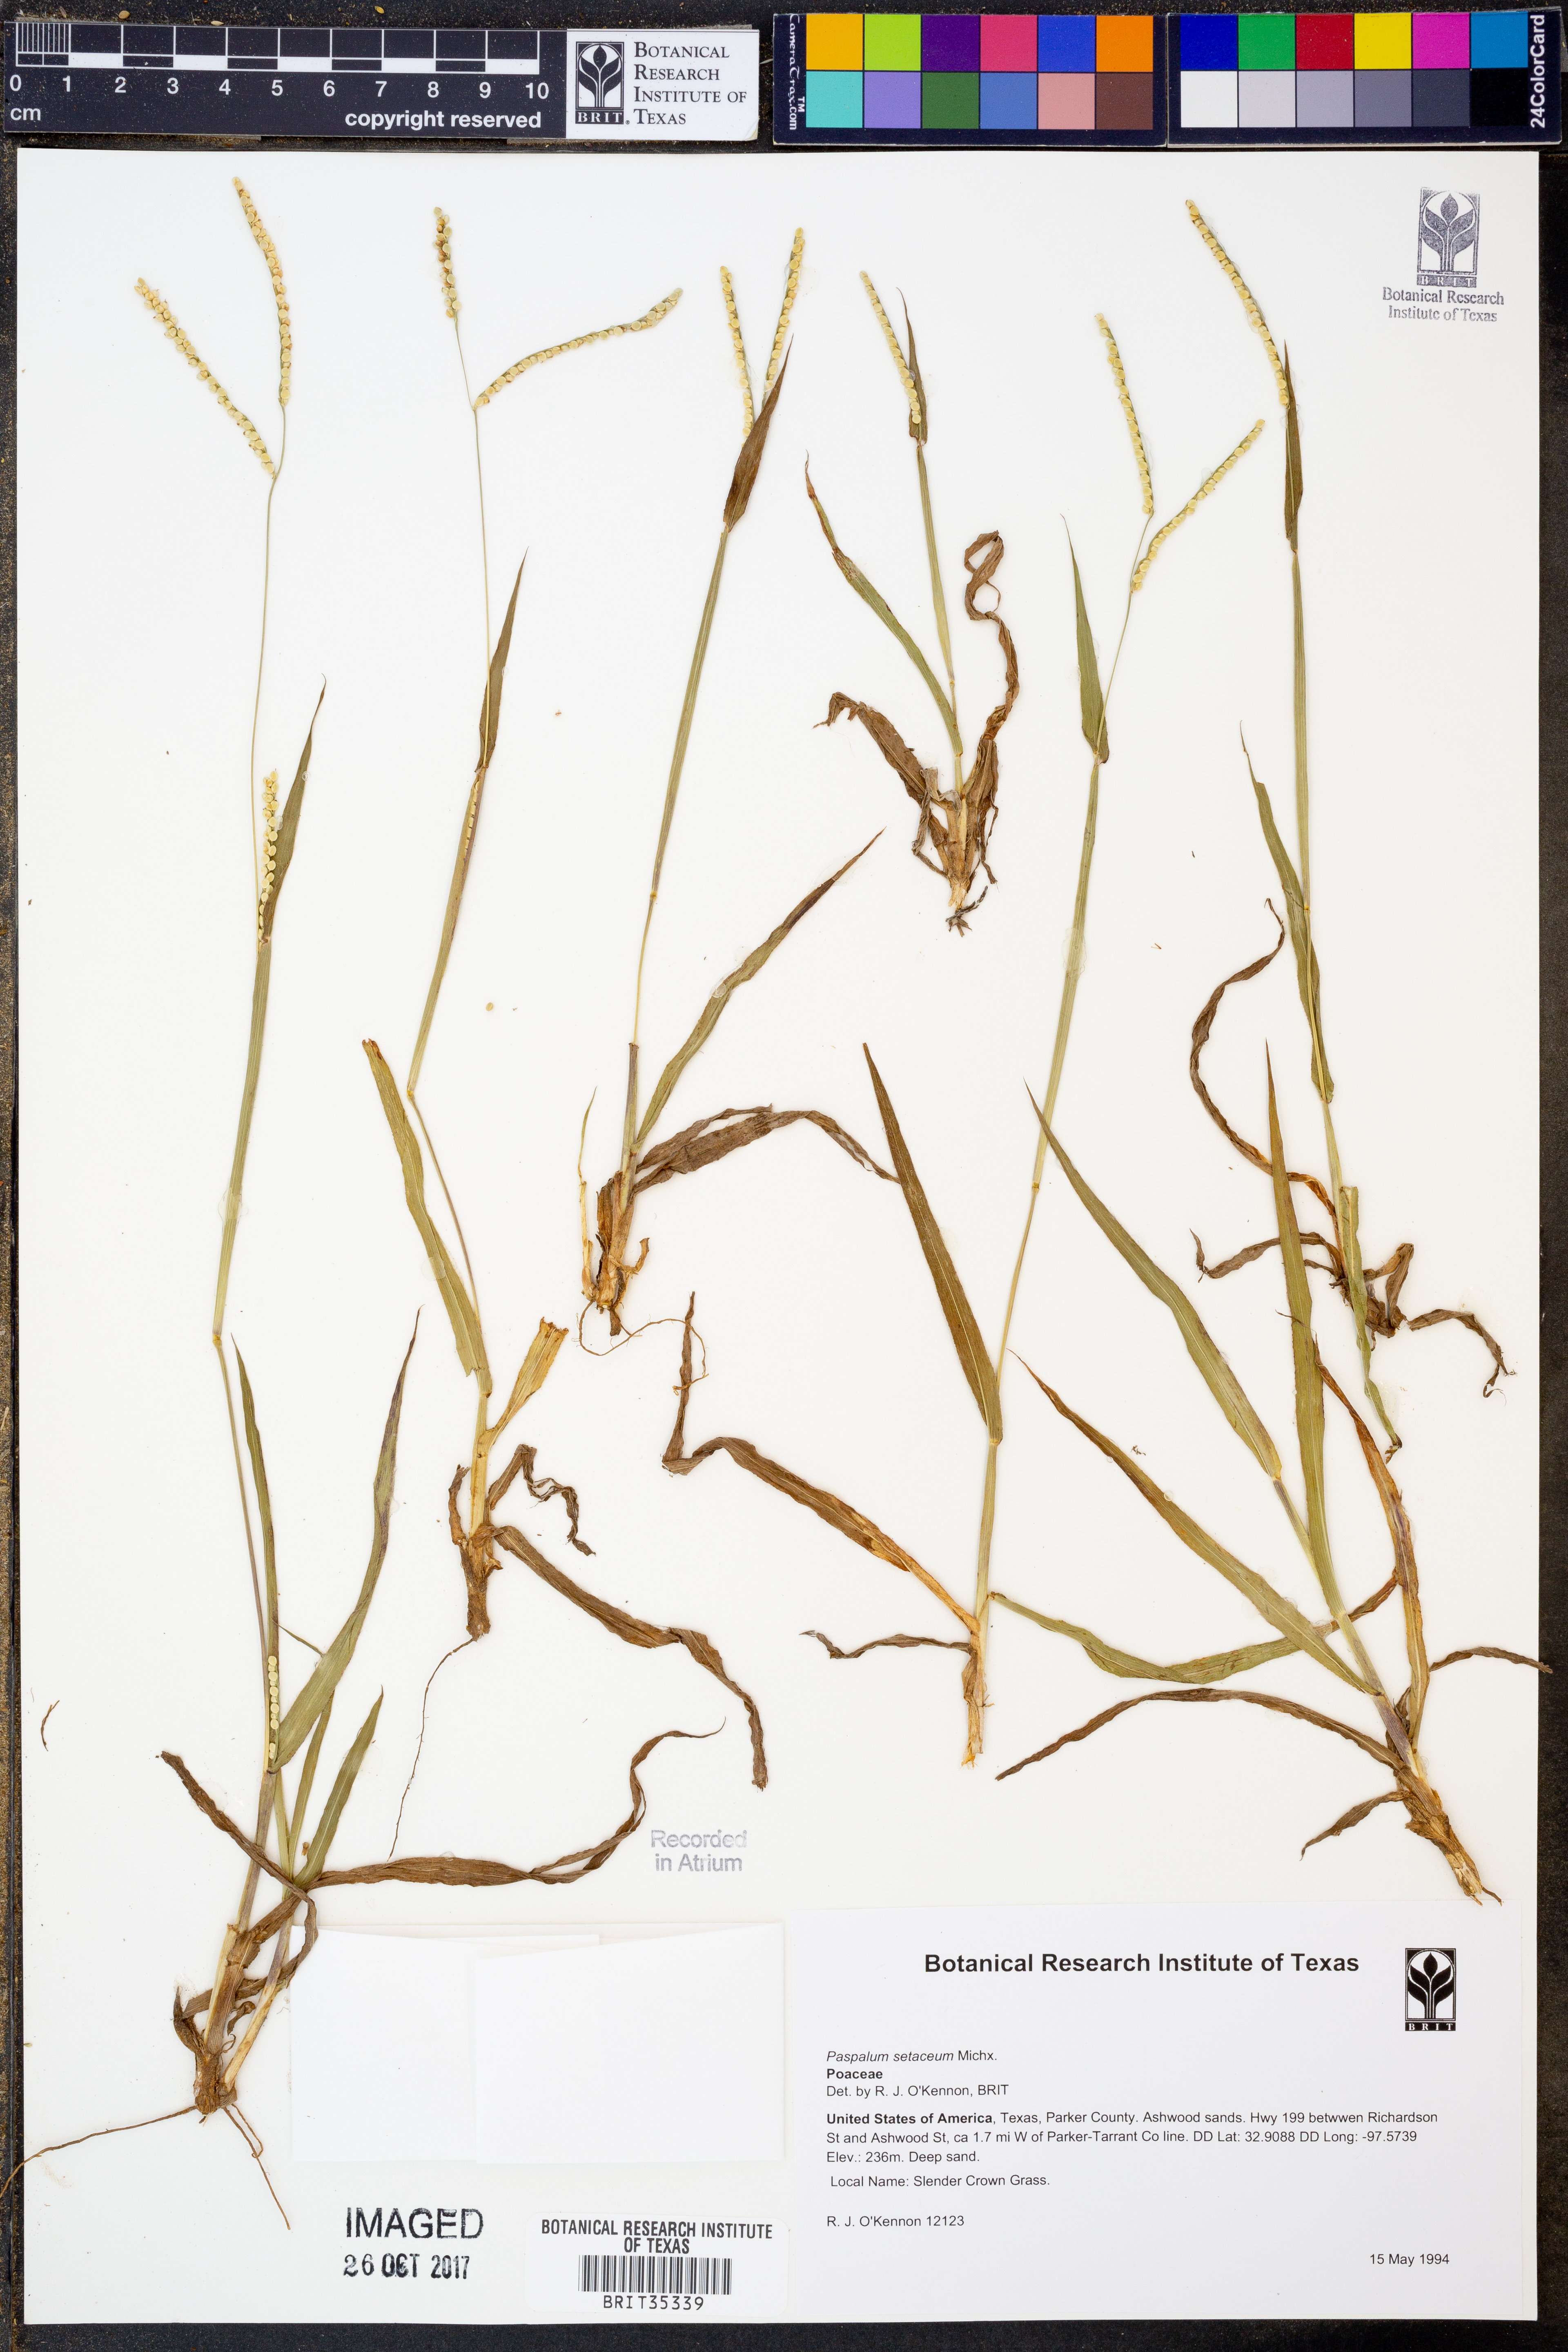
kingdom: Plantae
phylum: Tracheophyta
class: Liliopsida
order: Poales
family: Poaceae
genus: Paspalum
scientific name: Paspalum setaceum
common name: Slender paspalum
